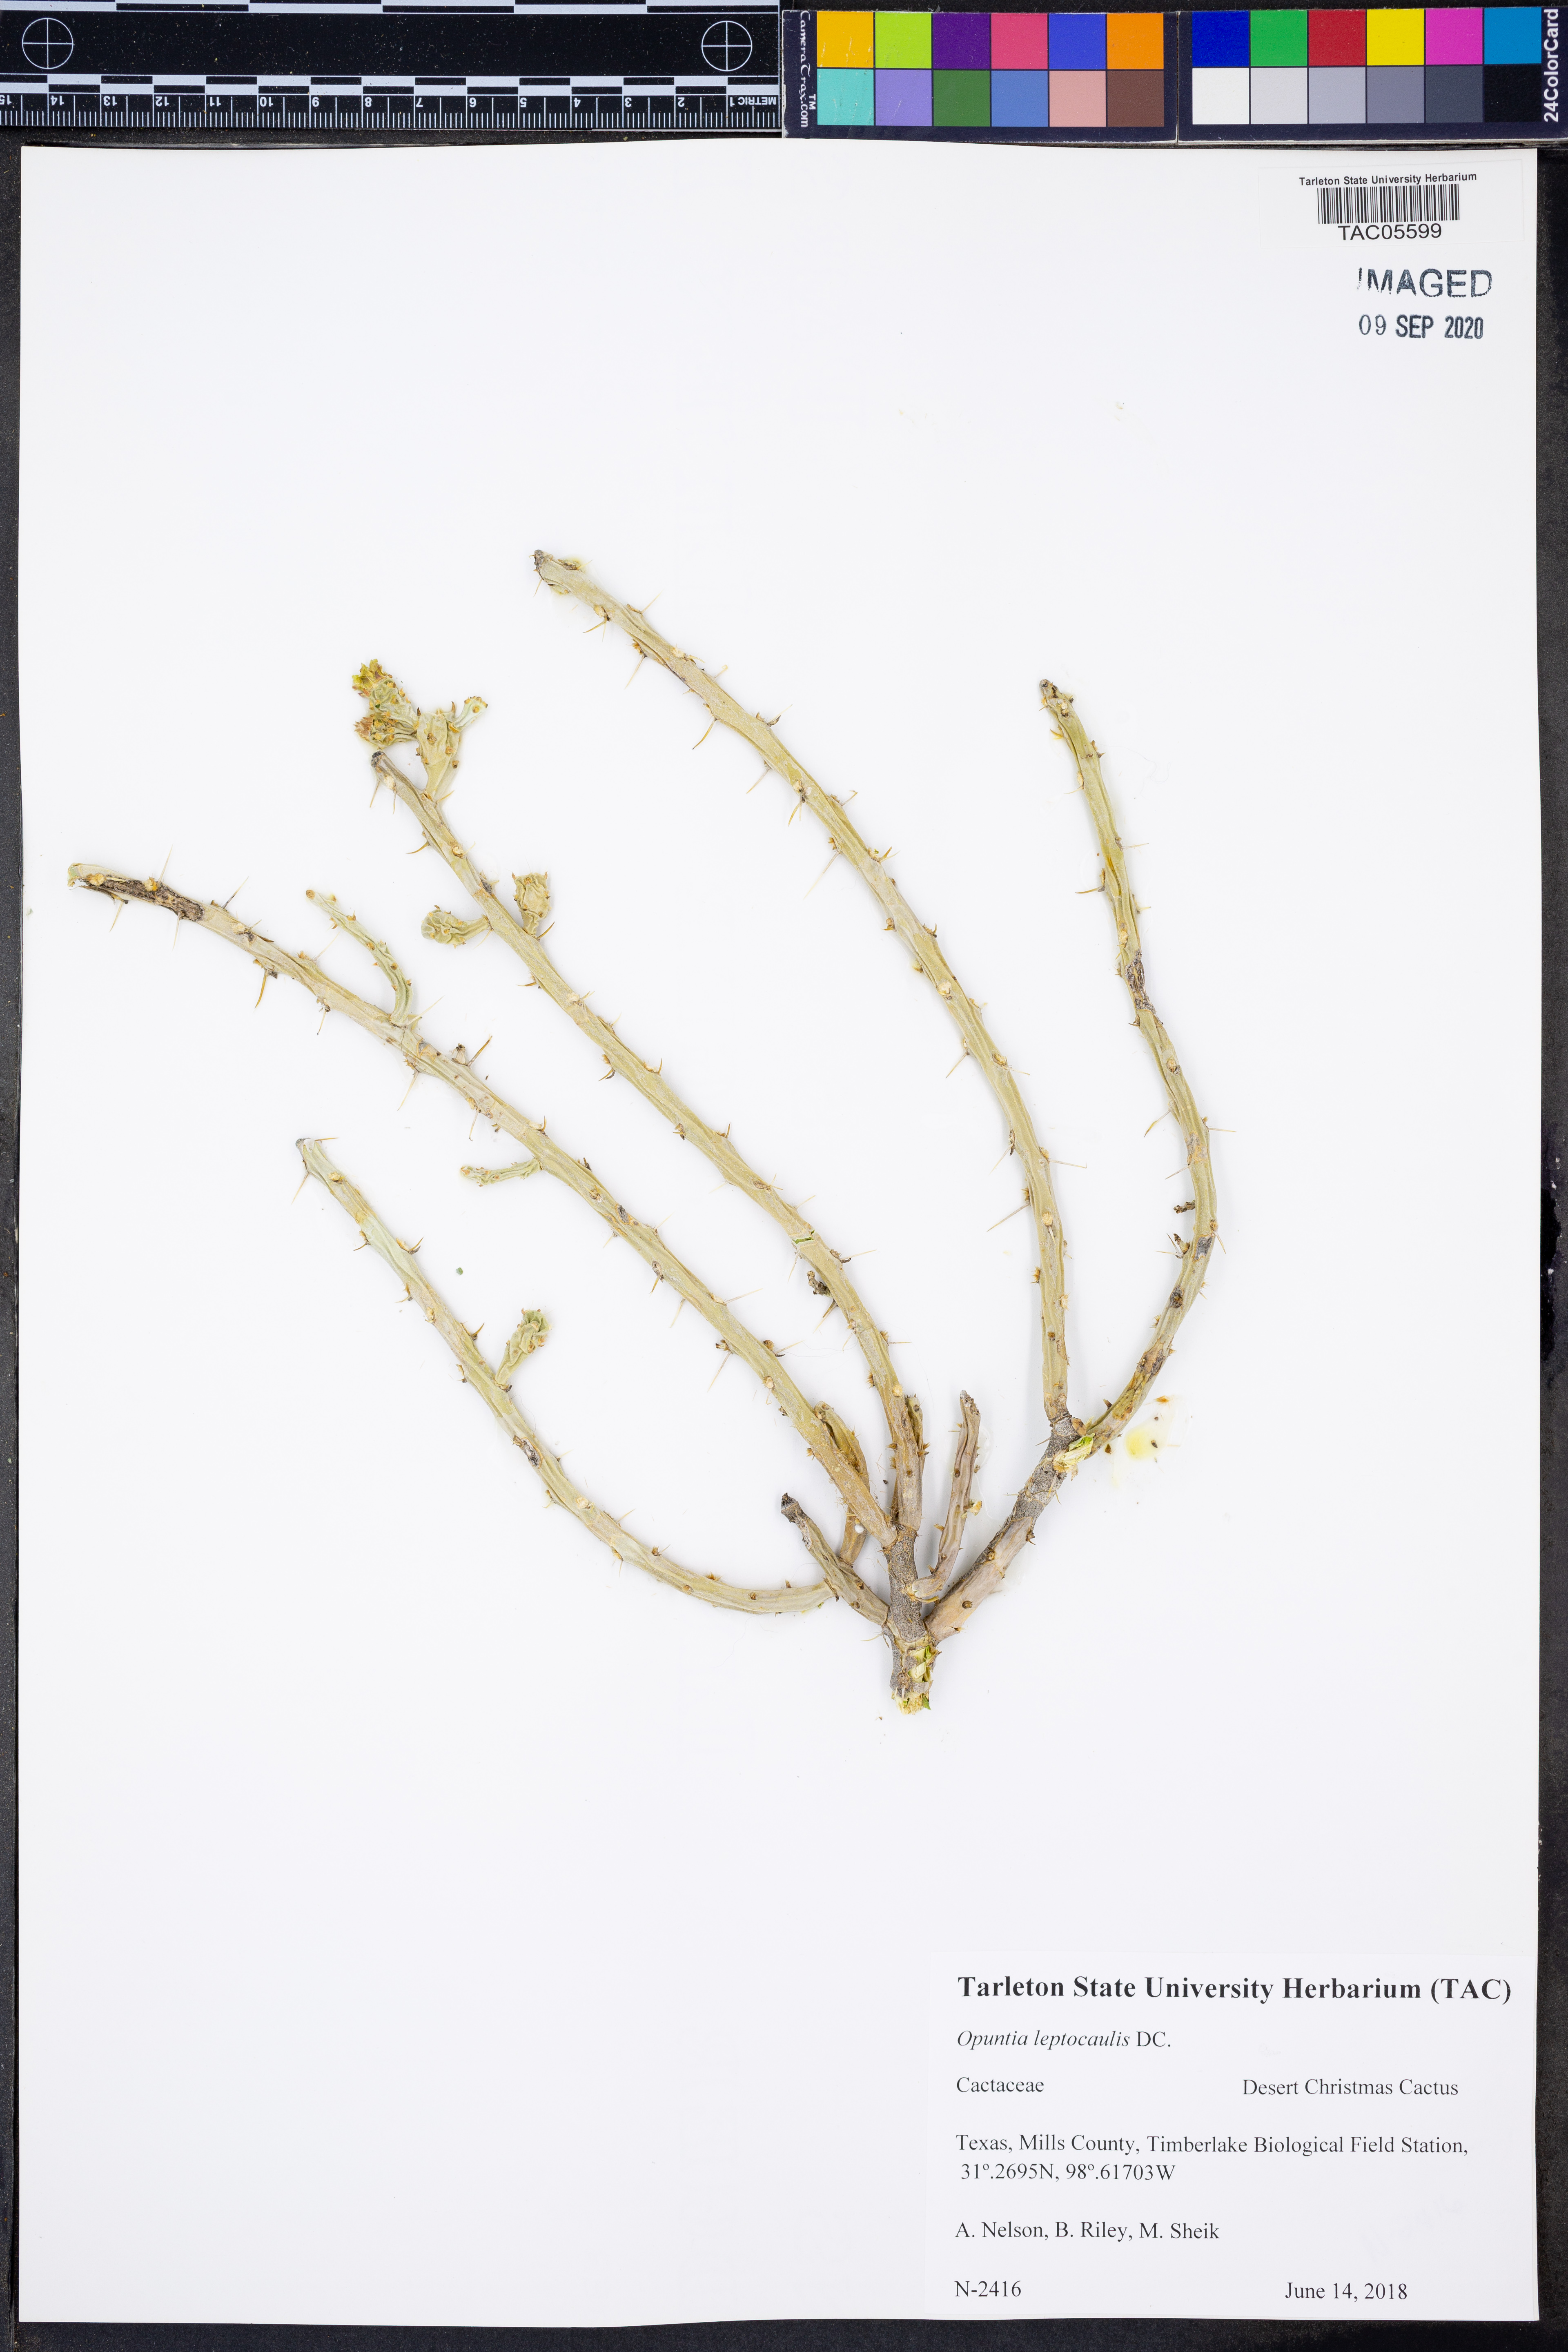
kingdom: Plantae
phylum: Tracheophyta
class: Magnoliopsida
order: Caryophyllales
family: Cactaceae
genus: Cylindropuntia
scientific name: Cylindropuntia leptocaulis
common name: Christmas cactus
